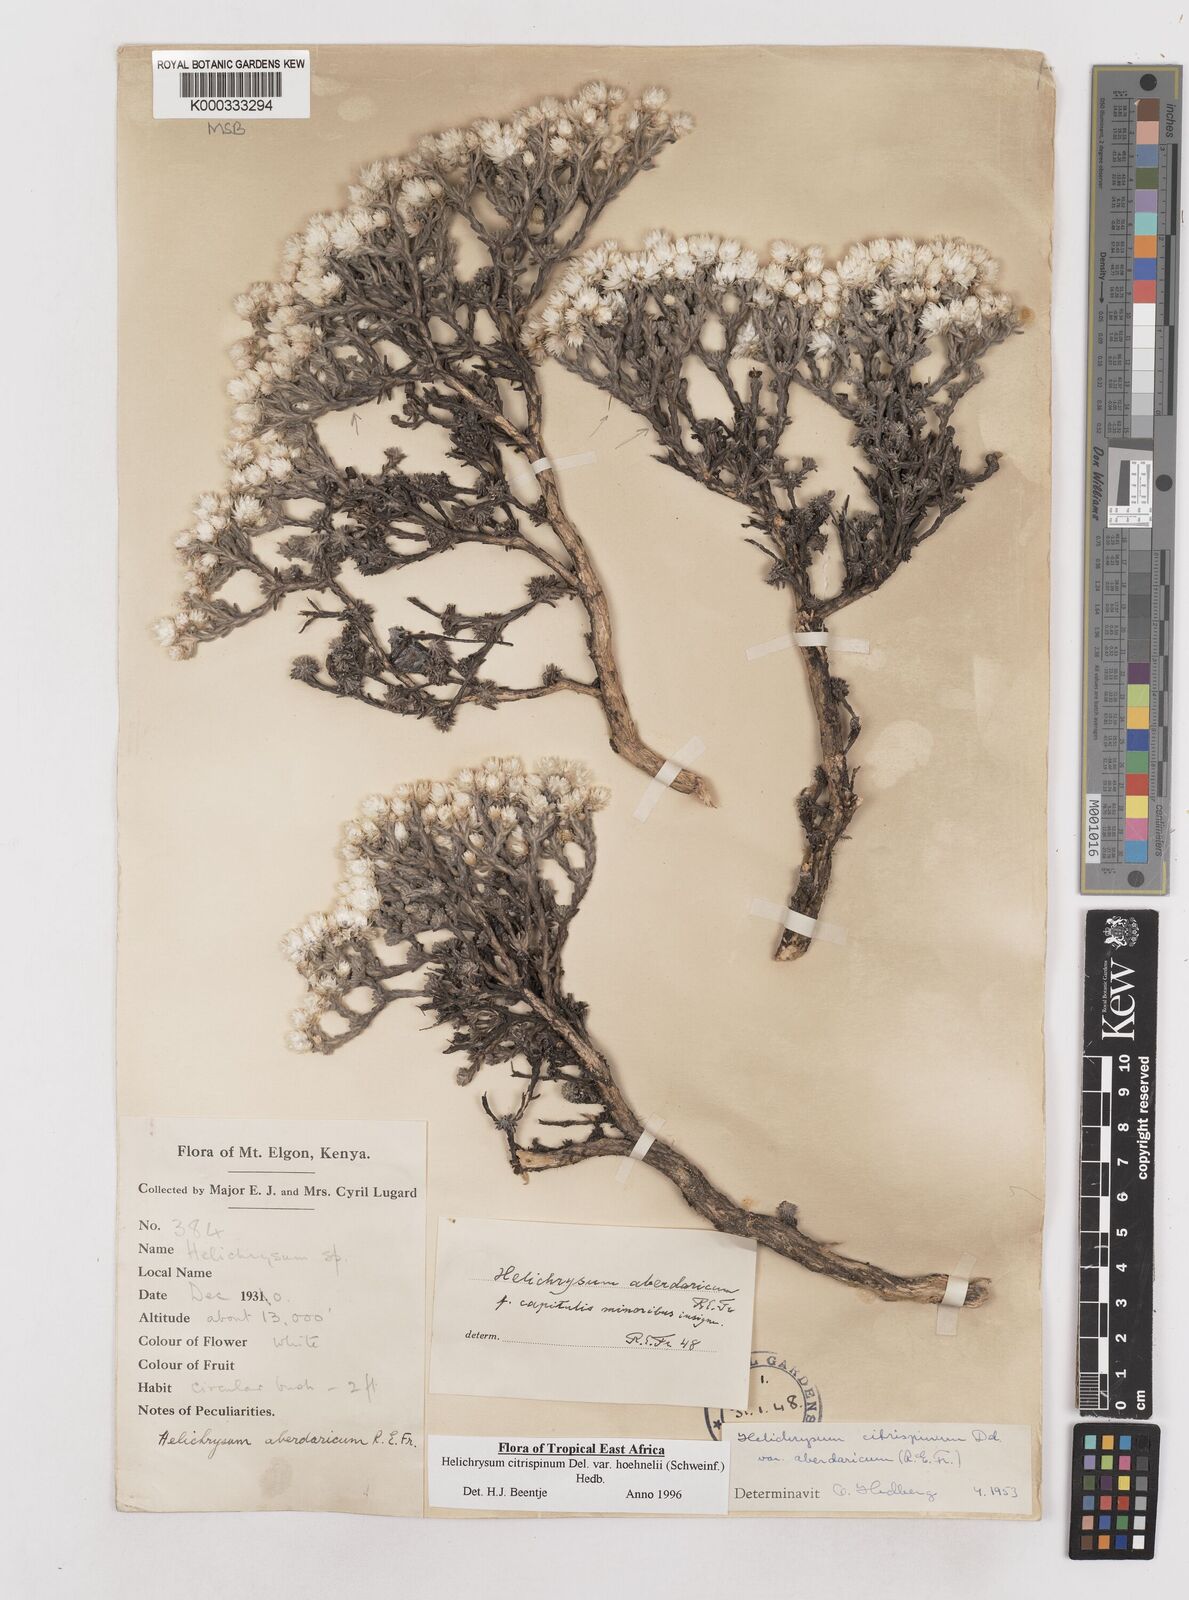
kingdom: Plantae
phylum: Tracheophyta
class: Magnoliopsida
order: Asterales
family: Asteraceae
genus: Helichrysum
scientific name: Helichrysum citrispinum
